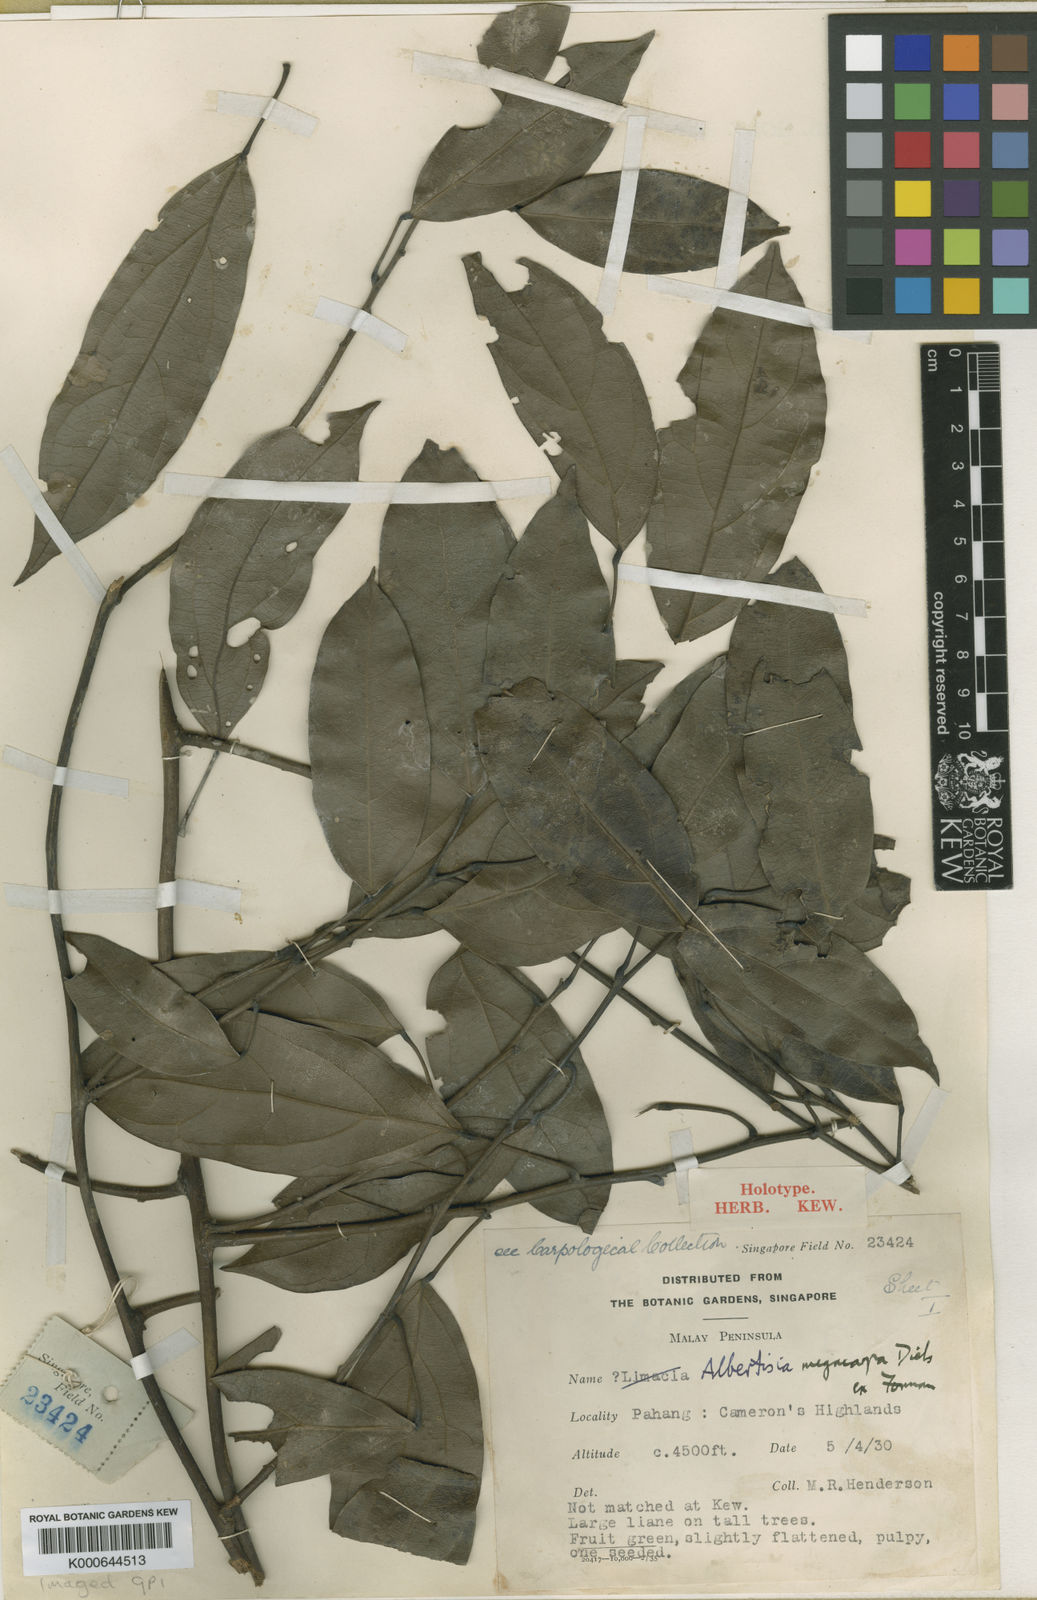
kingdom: Plantae
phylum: Tracheophyta
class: Magnoliopsida
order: Ranunculales
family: Menispermaceae
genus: Albertisia
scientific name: Albertisia megacarpa
